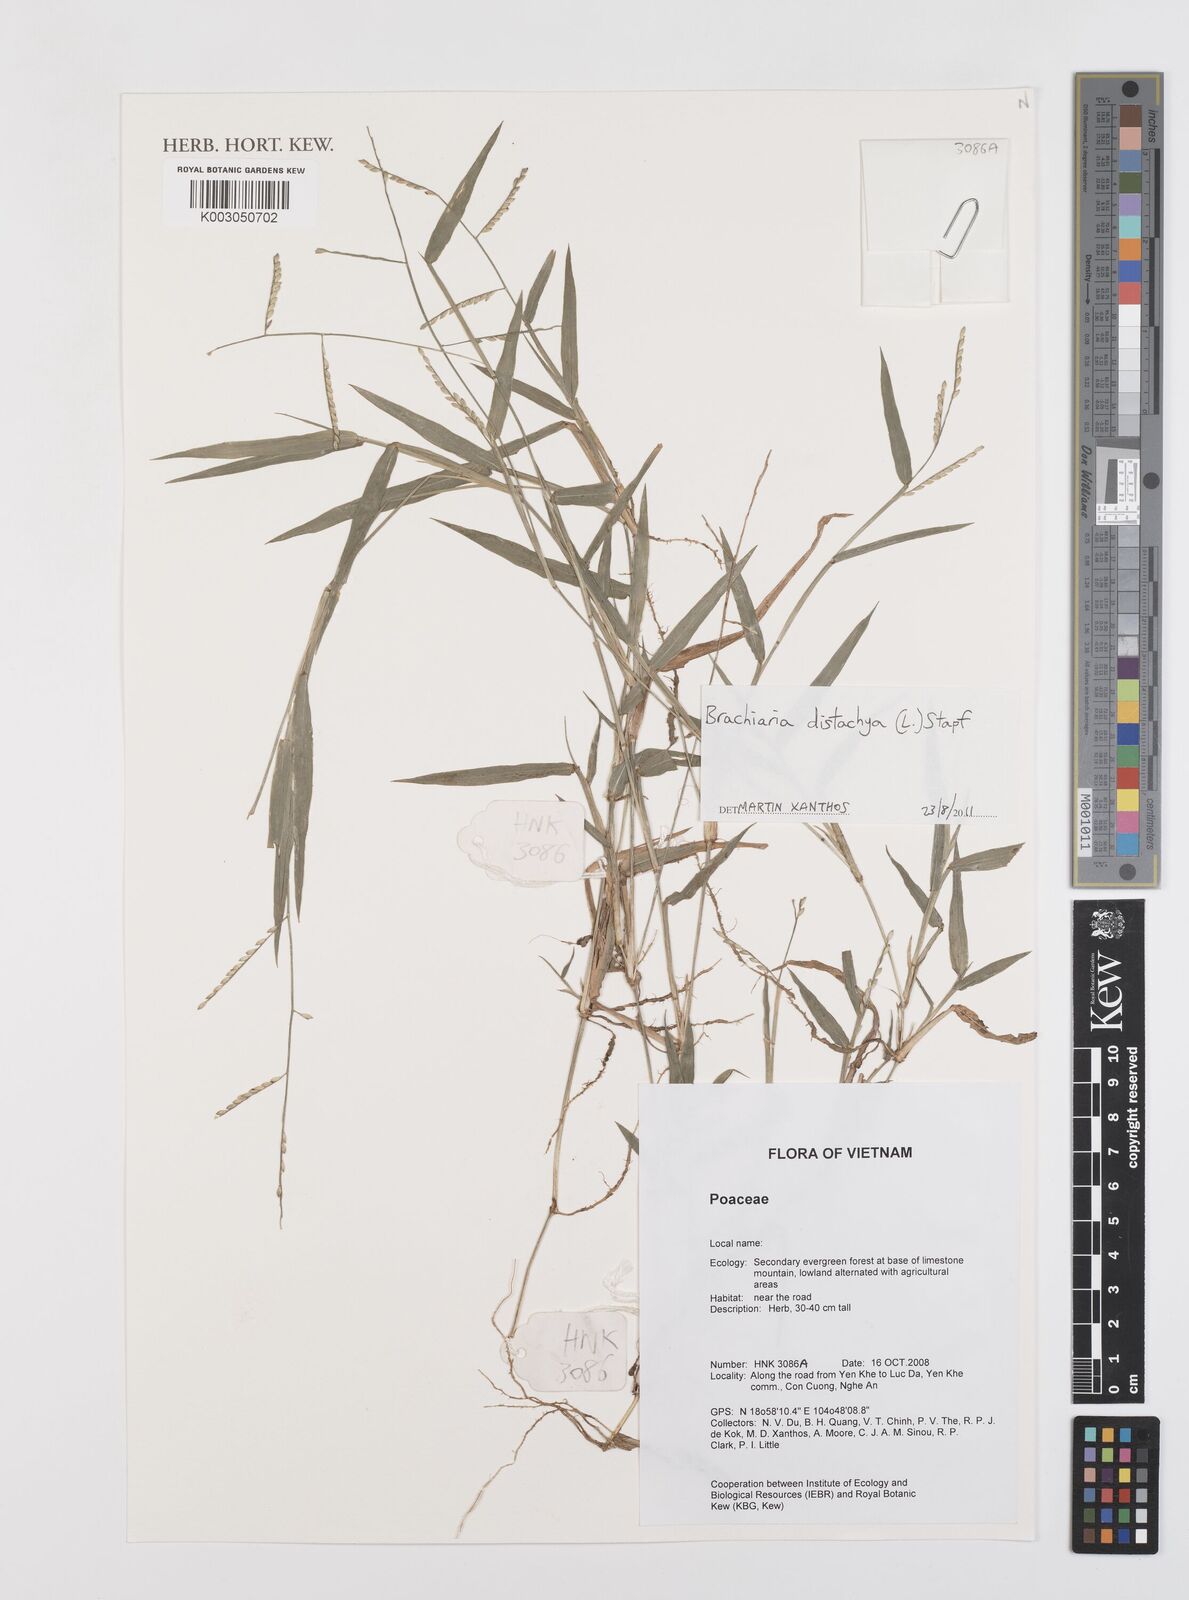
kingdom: Plantae
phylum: Tracheophyta
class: Liliopsida
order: Poales
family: Poaceae
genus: Urochloa
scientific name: Urochloa distachyos
